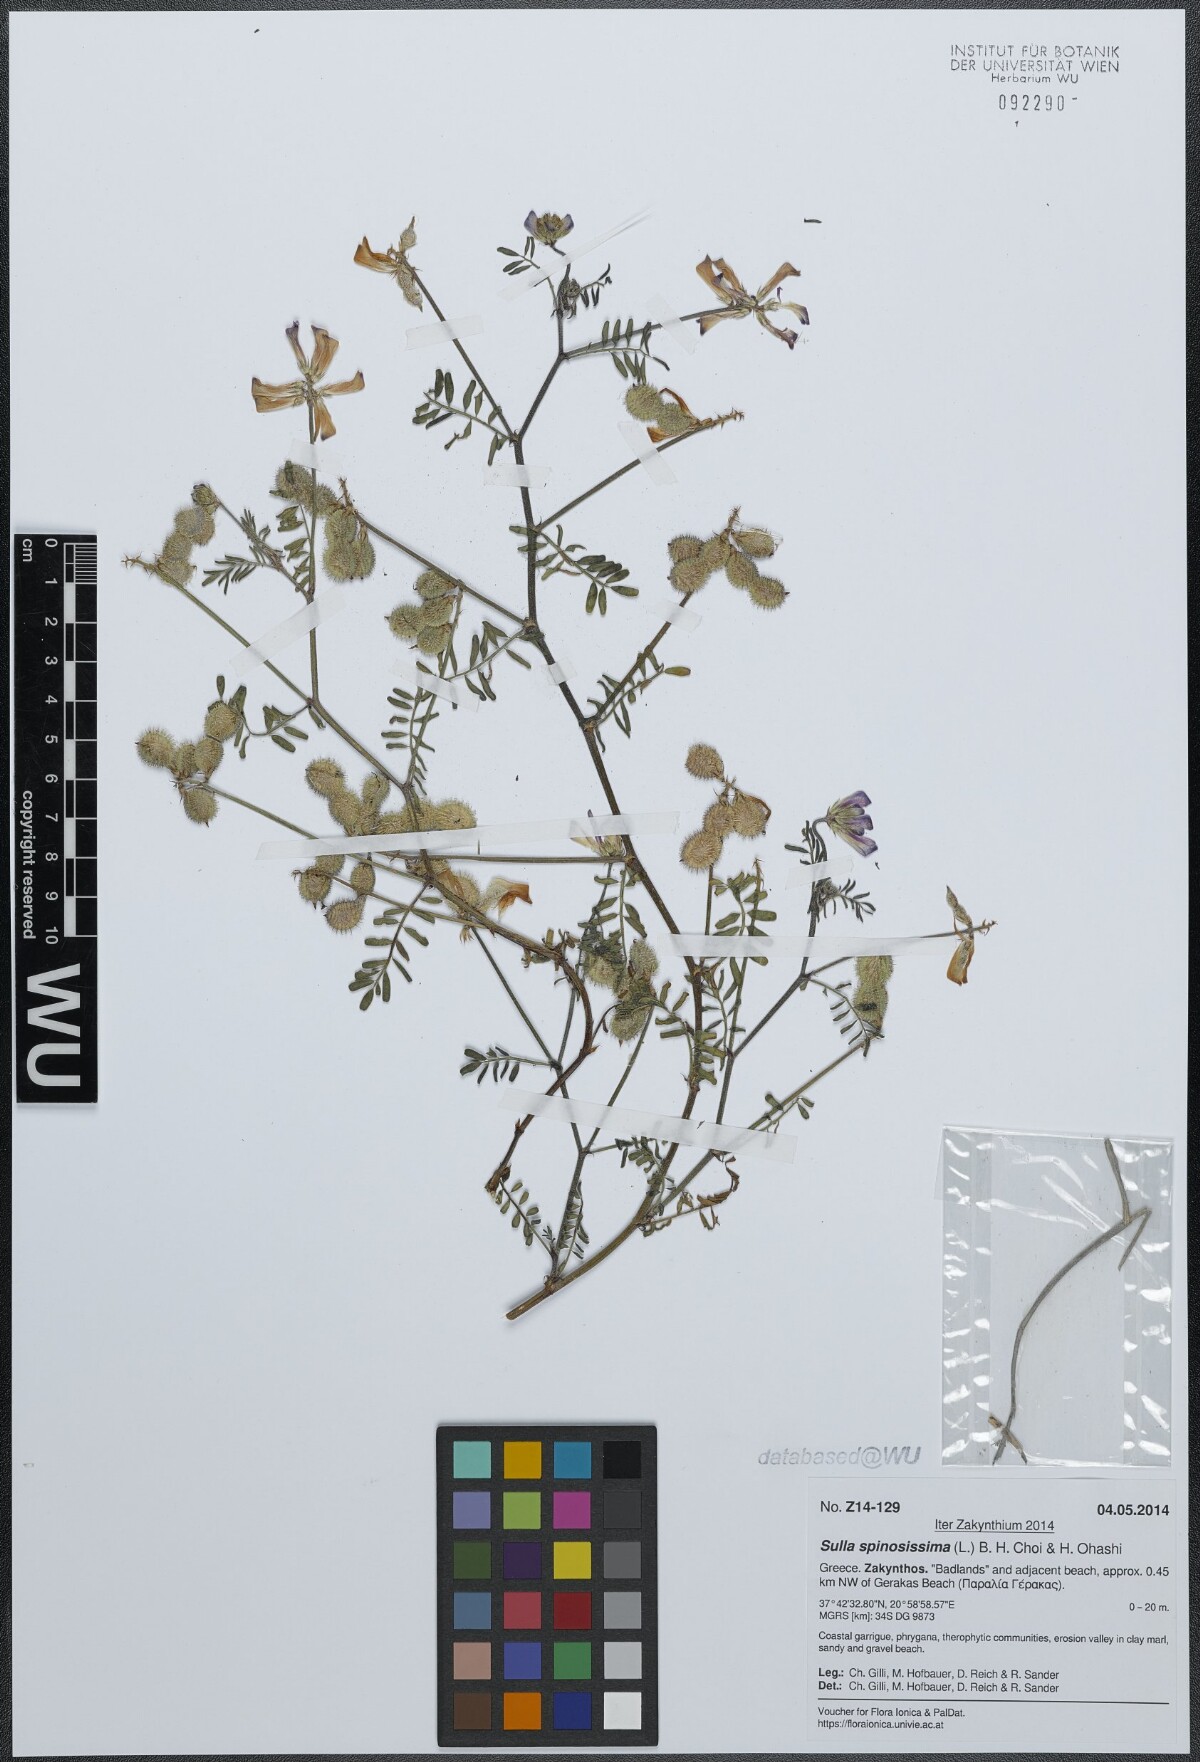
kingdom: Plantae
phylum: Tracheophyta
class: Magnoliopsida
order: Fabales
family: Fabaceae
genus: Sulla
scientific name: Sulla glomerata
